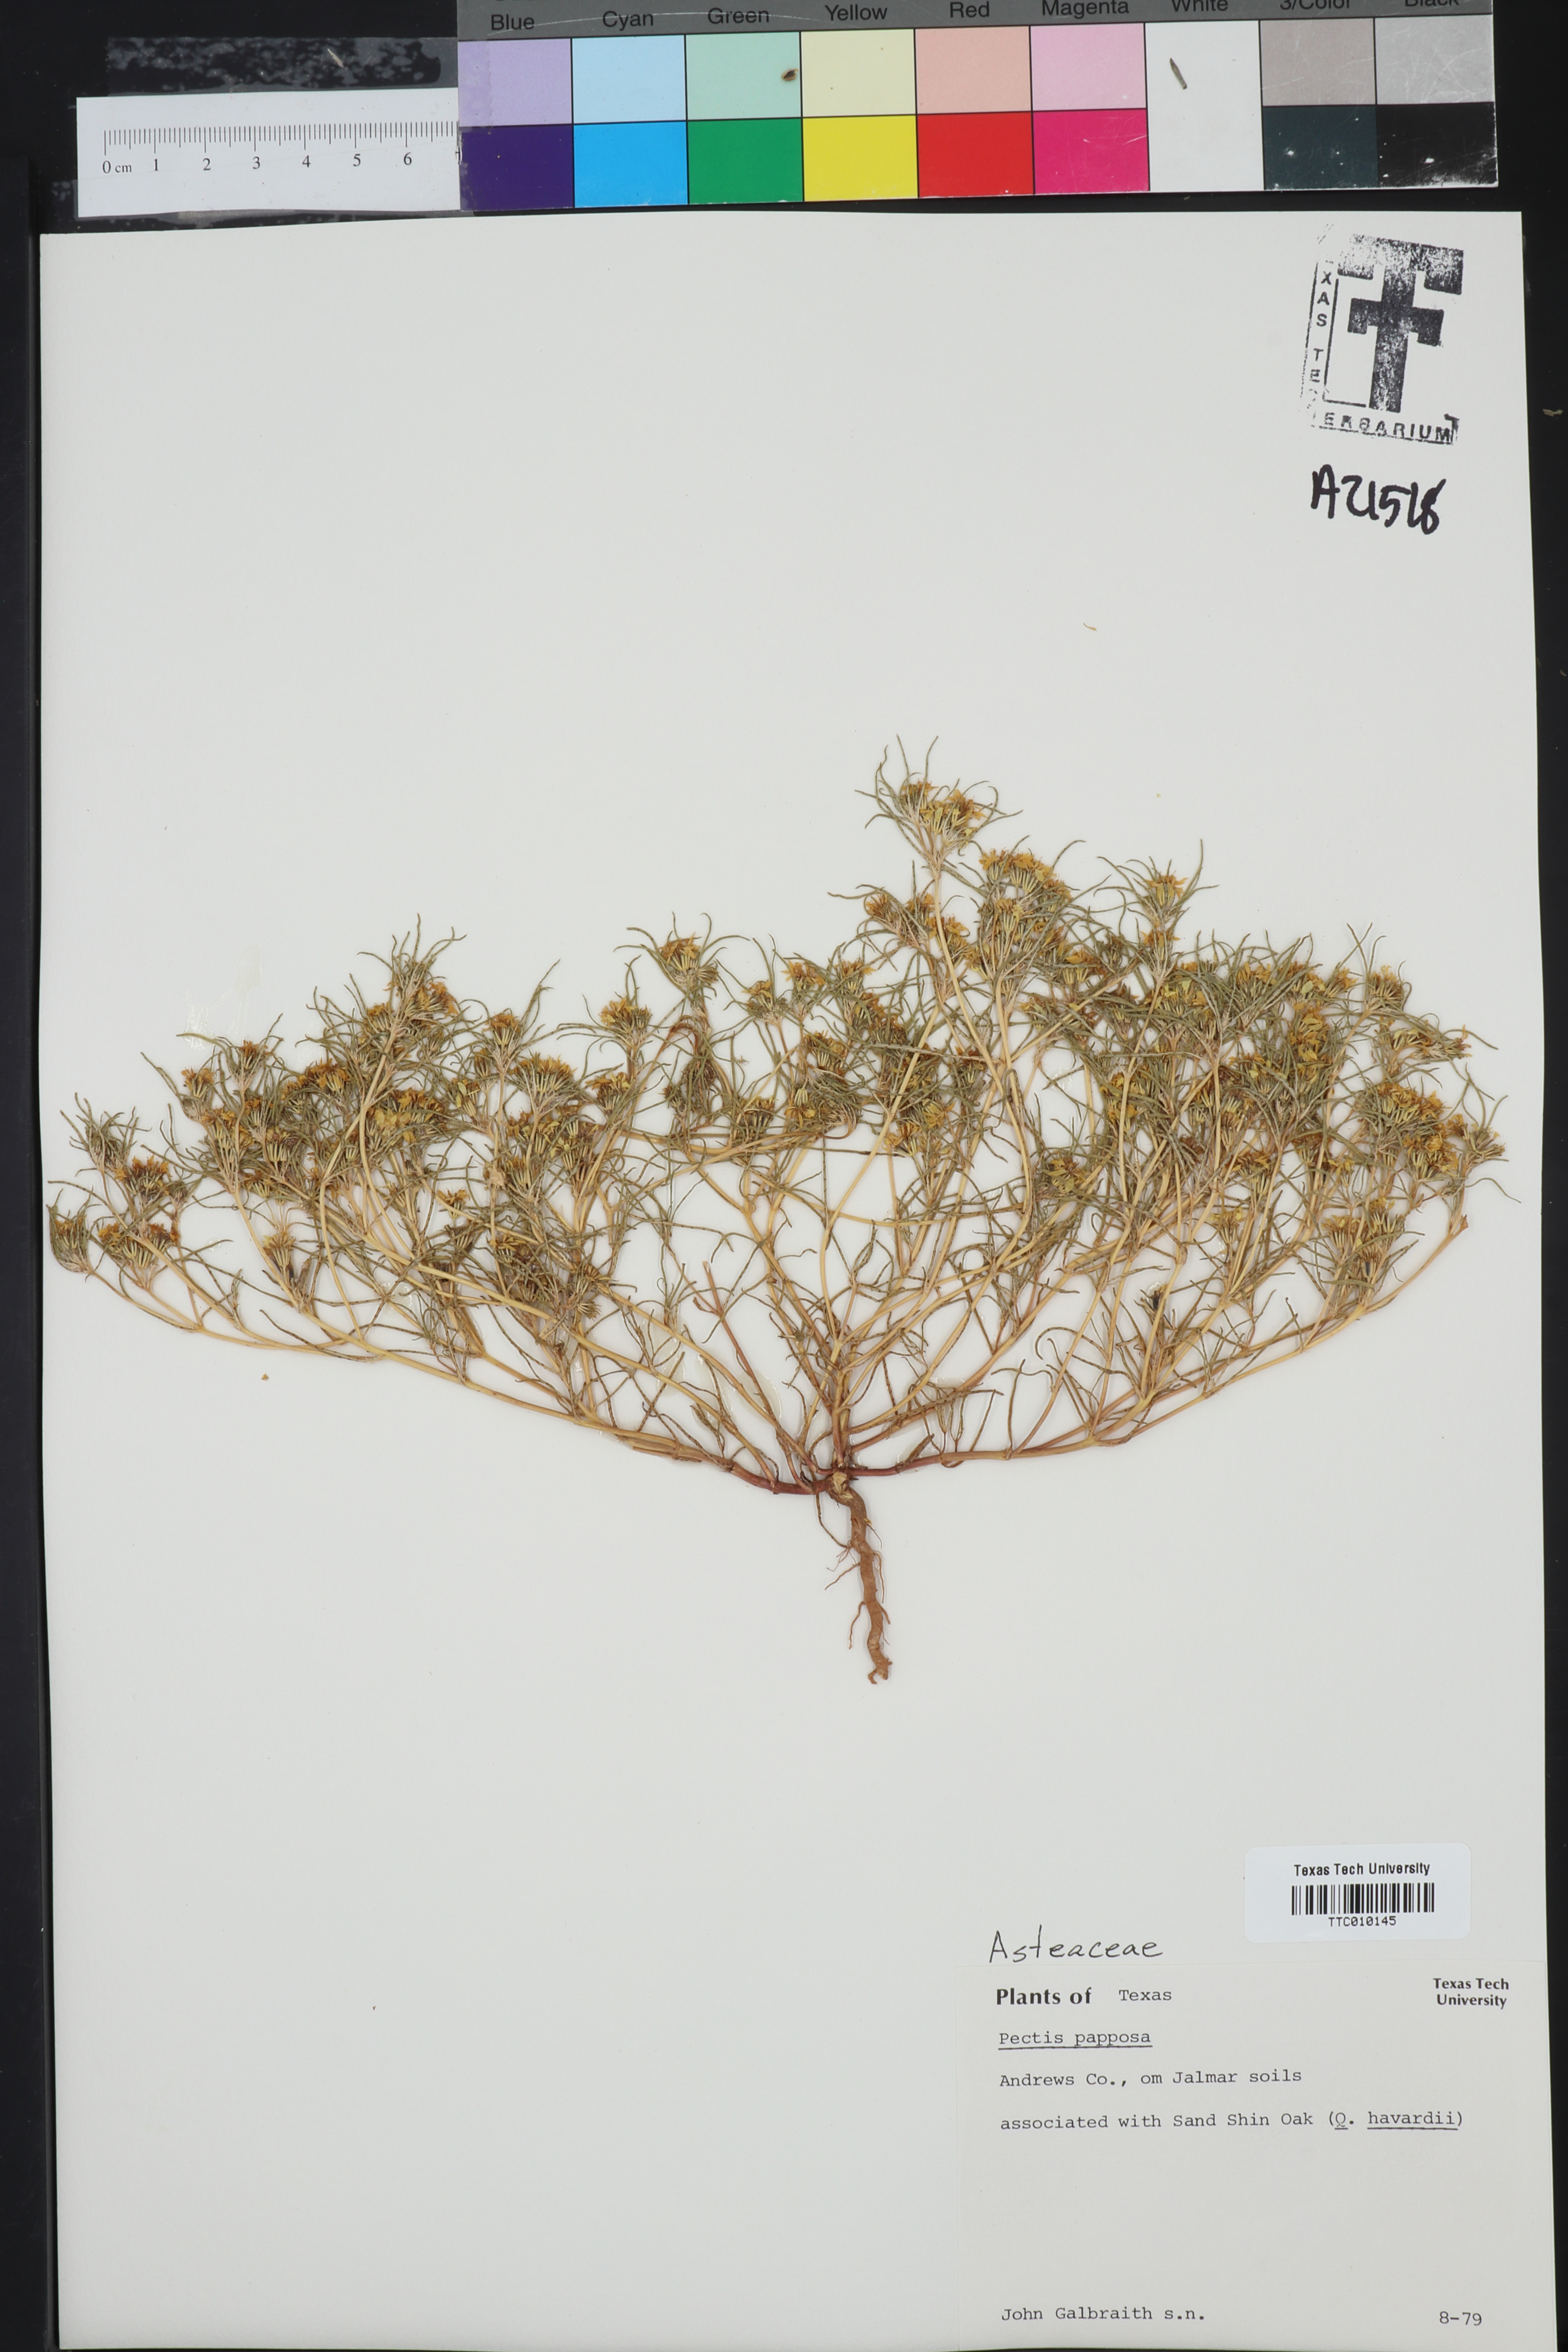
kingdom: Plantae
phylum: Tracheophyta
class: Magnoliopsida
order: Asterales
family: Asteraceae
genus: Pectis
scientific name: Pectis papposa
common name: Many-bristle chinchweed
